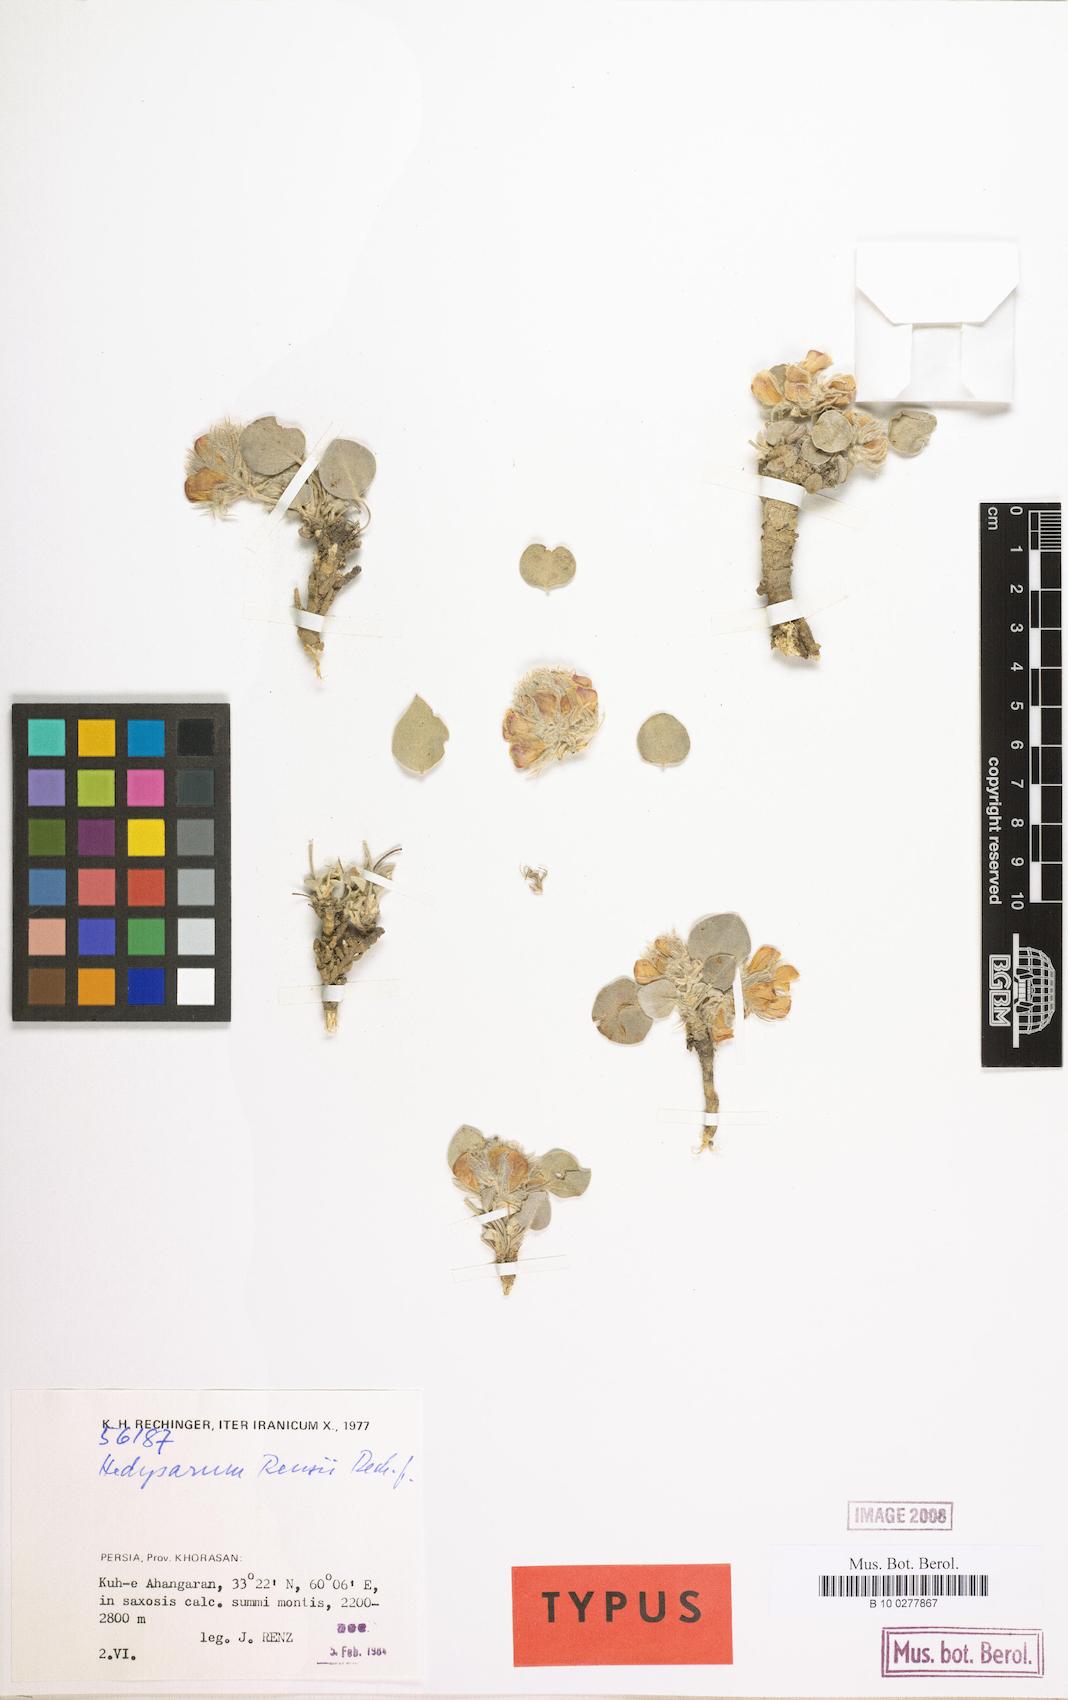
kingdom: Plantae
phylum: Tracheophyta
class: Magnoliopsida
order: Fabales
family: Fabaceae
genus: Hedysarum
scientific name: Hedysarum renzii
